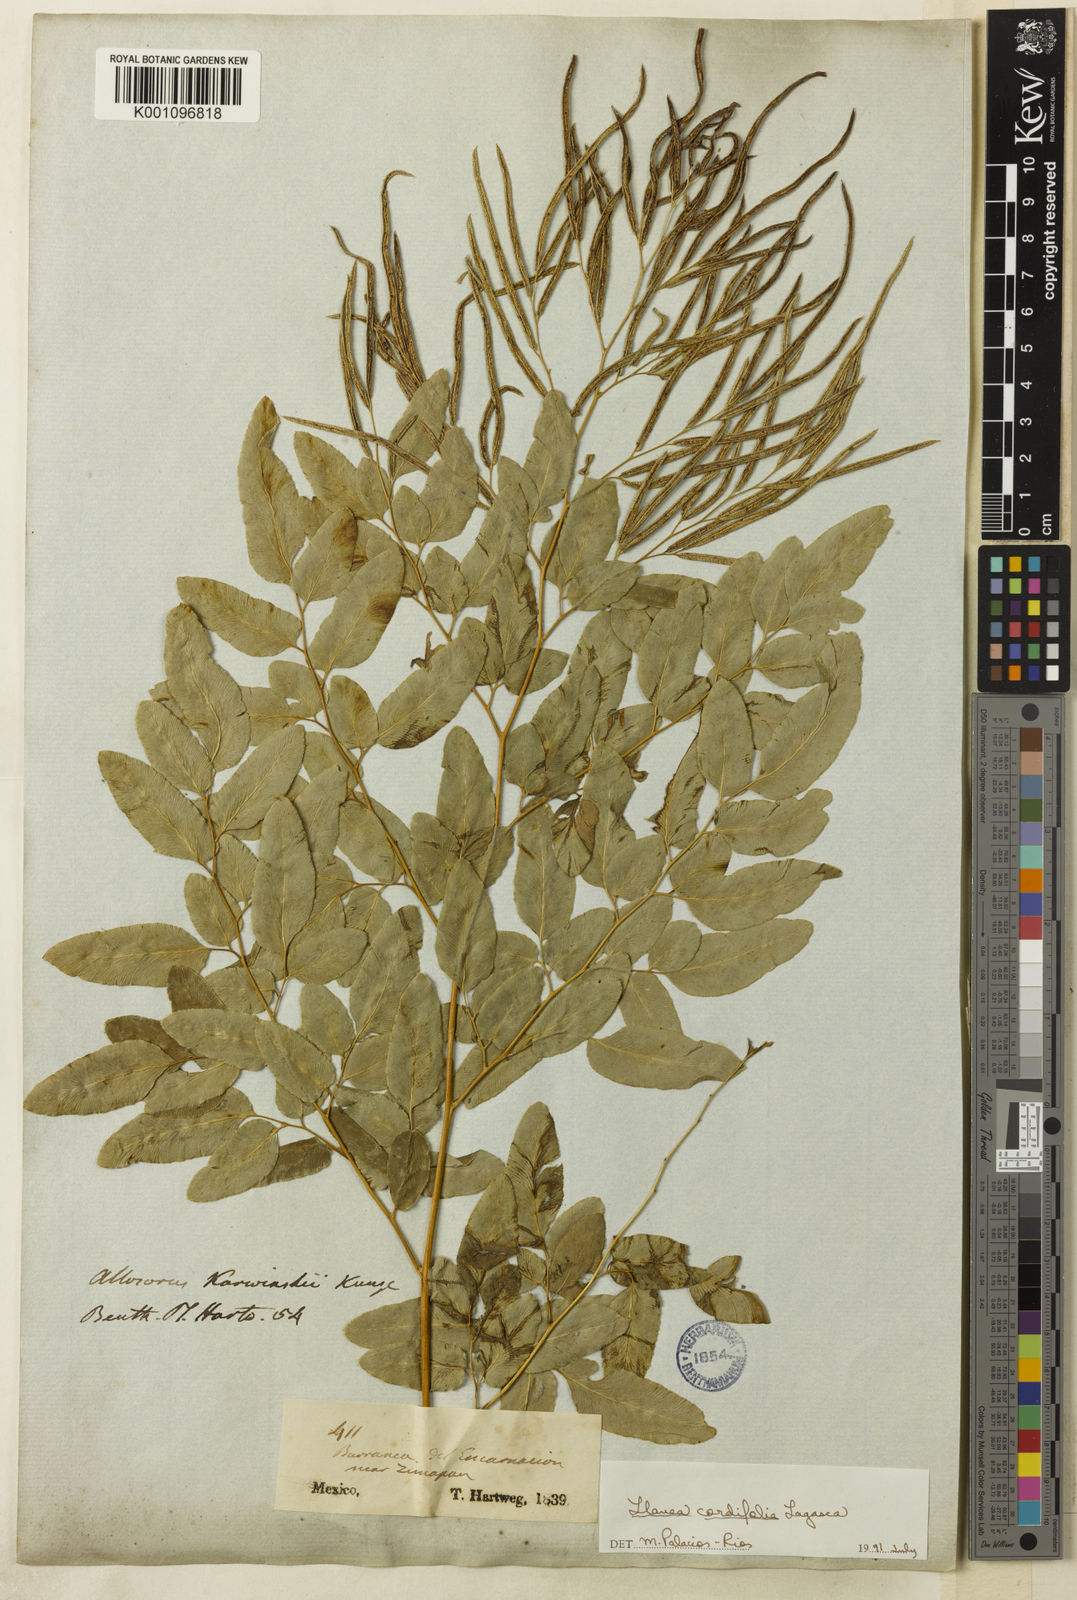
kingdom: Plantae
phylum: Tracheophyta
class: Polypodiopsida
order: Polypodiales
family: Pteridaceae
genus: Llavea
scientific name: Llavea cordifolia
